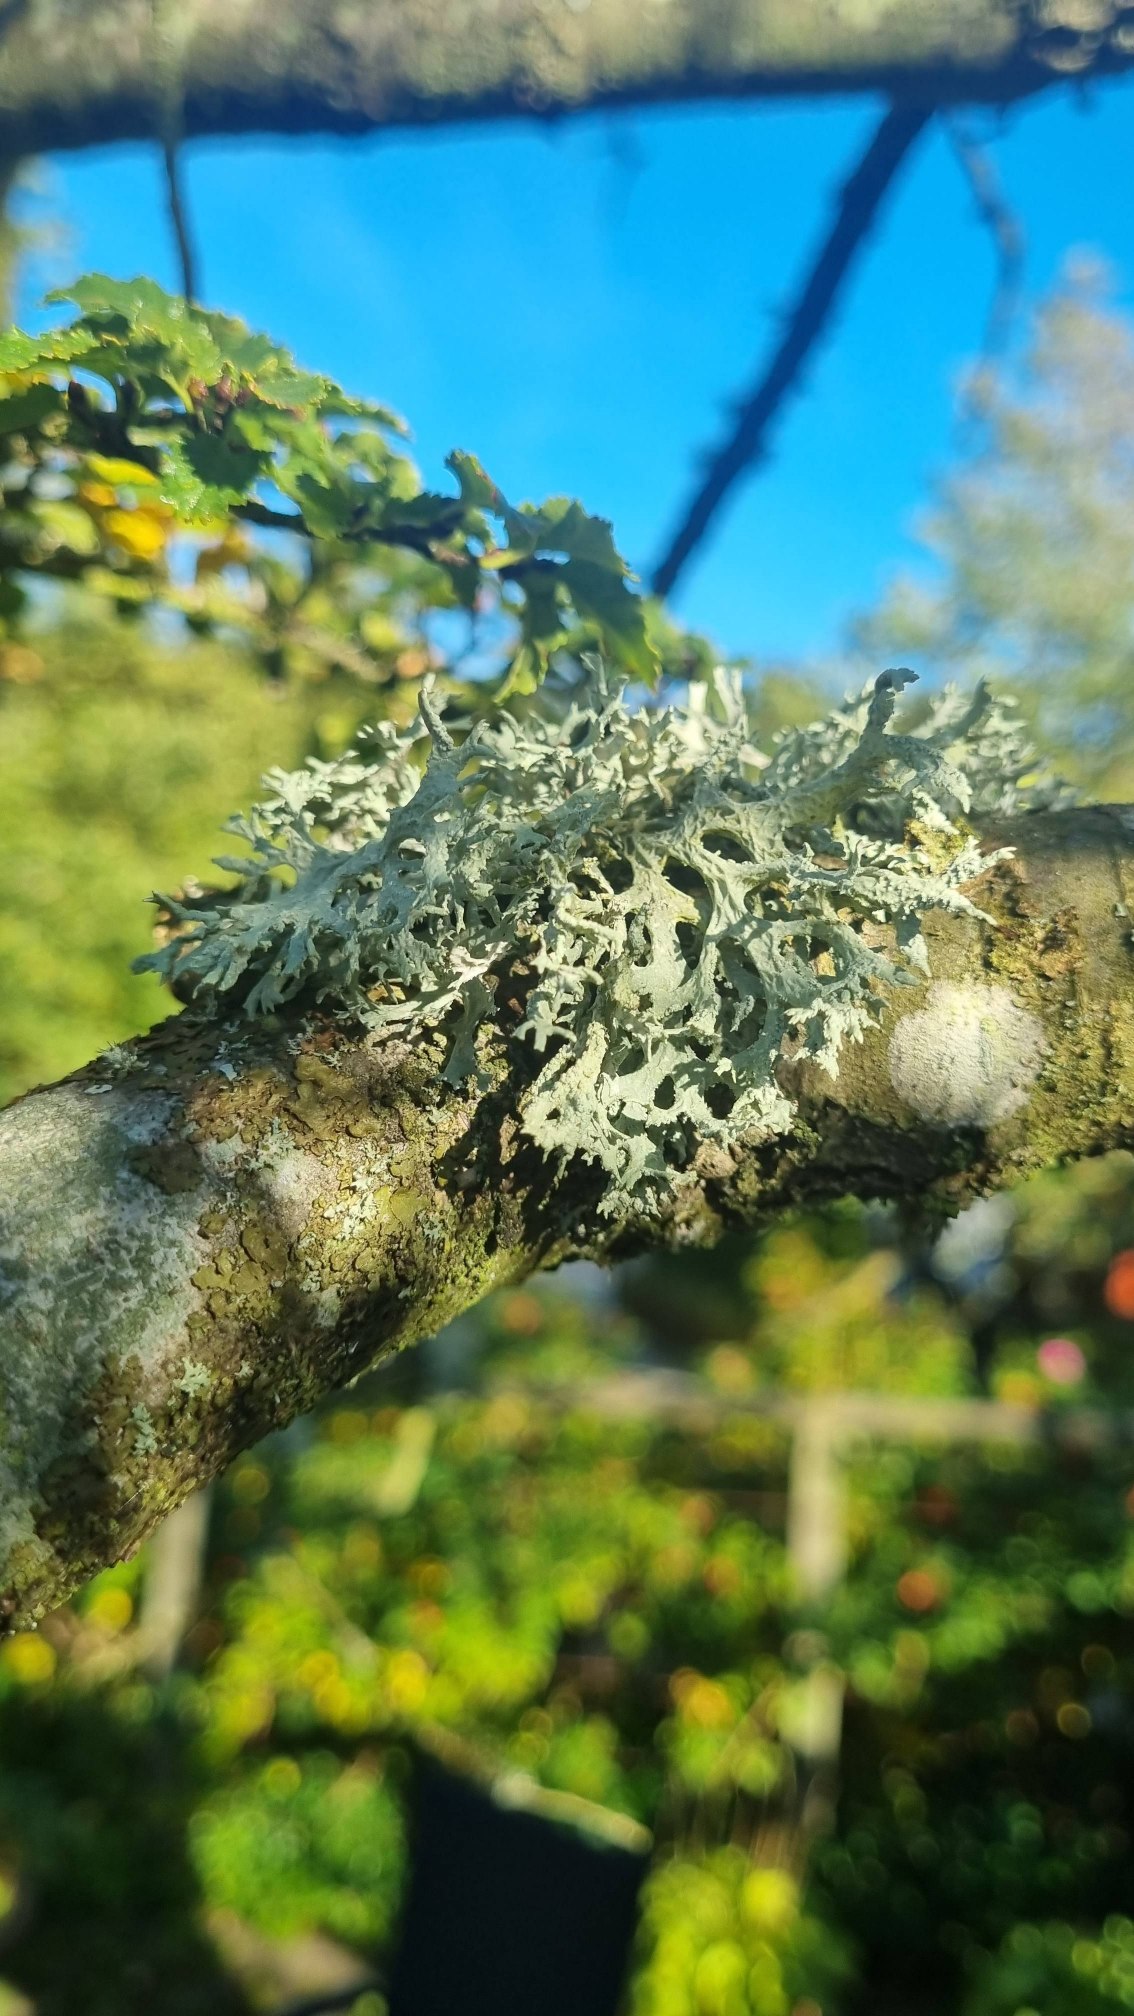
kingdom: Fungi
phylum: Ascomycota
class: Lecanoromycetes
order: Lecanorales
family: Parmeliaceae
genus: Evernia
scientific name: Evernia prunastri
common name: Almindelig slåenlav
